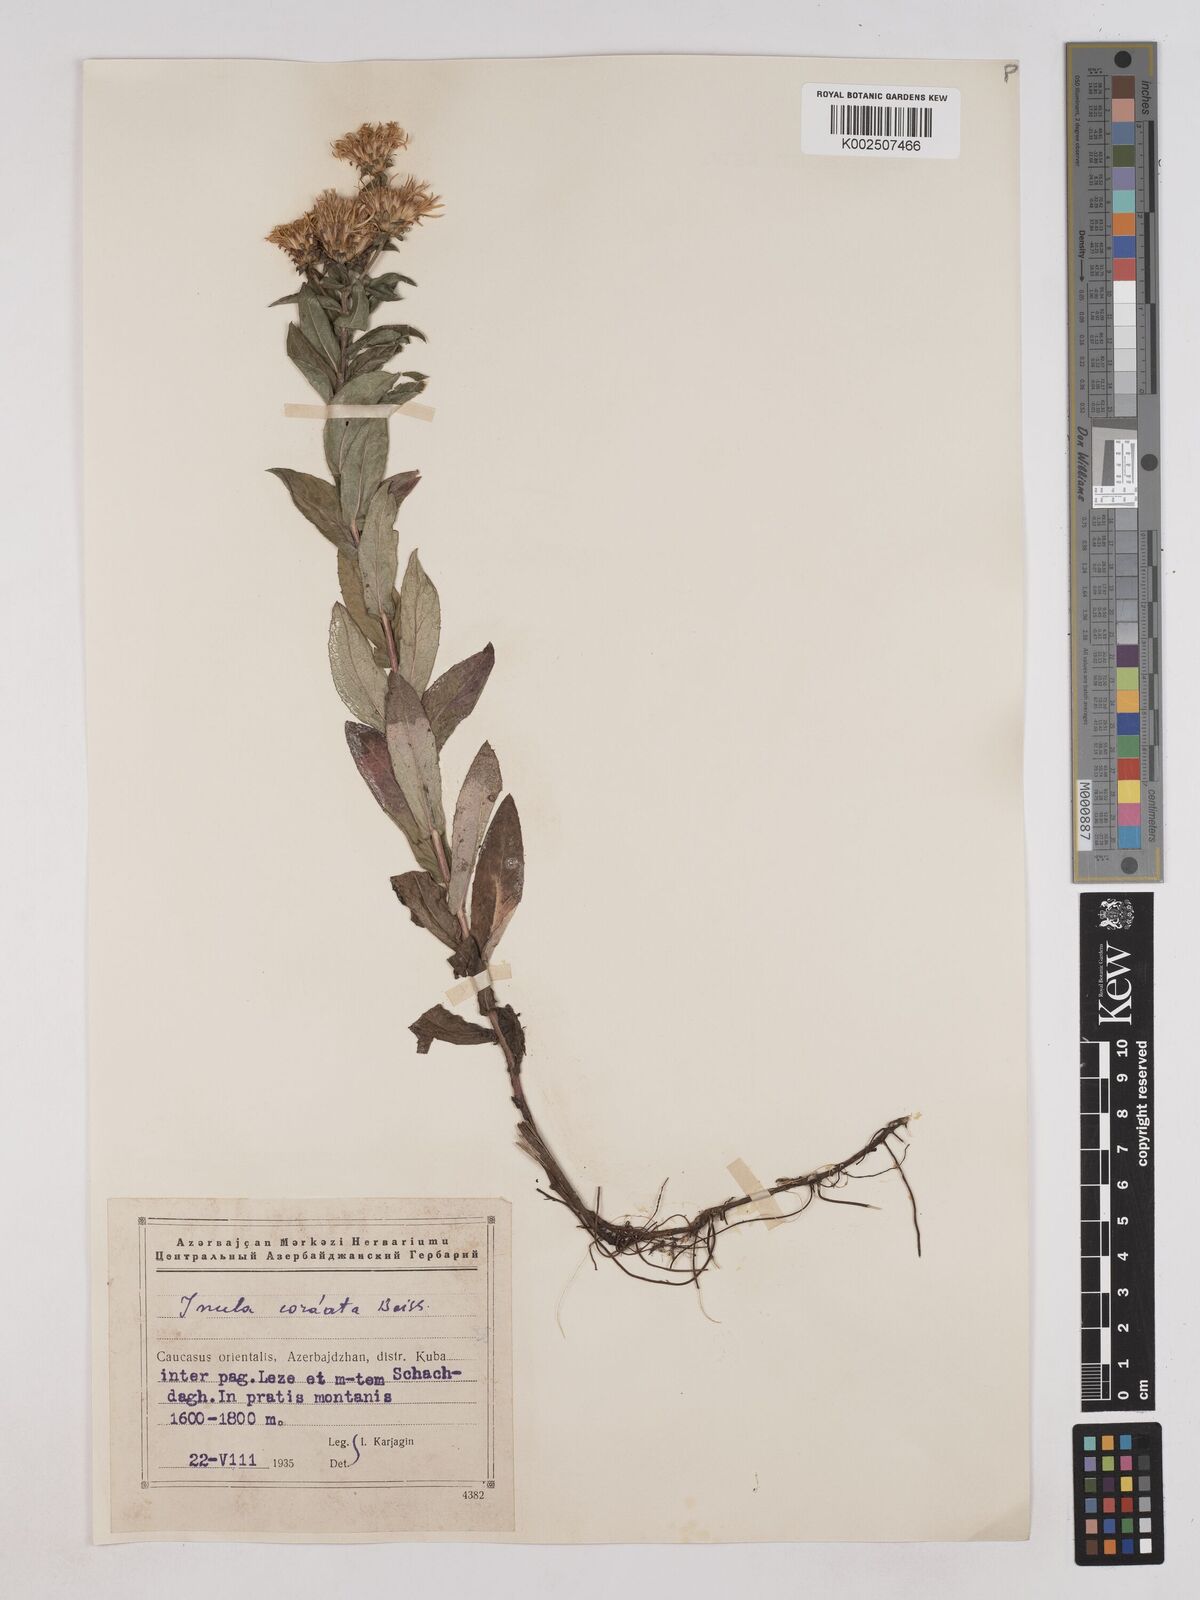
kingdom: Plantae
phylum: Tracheophyta
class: Magnoliopsida
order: Asterales
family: Asteraceae
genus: Pentanema
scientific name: Pentanema salicinum
